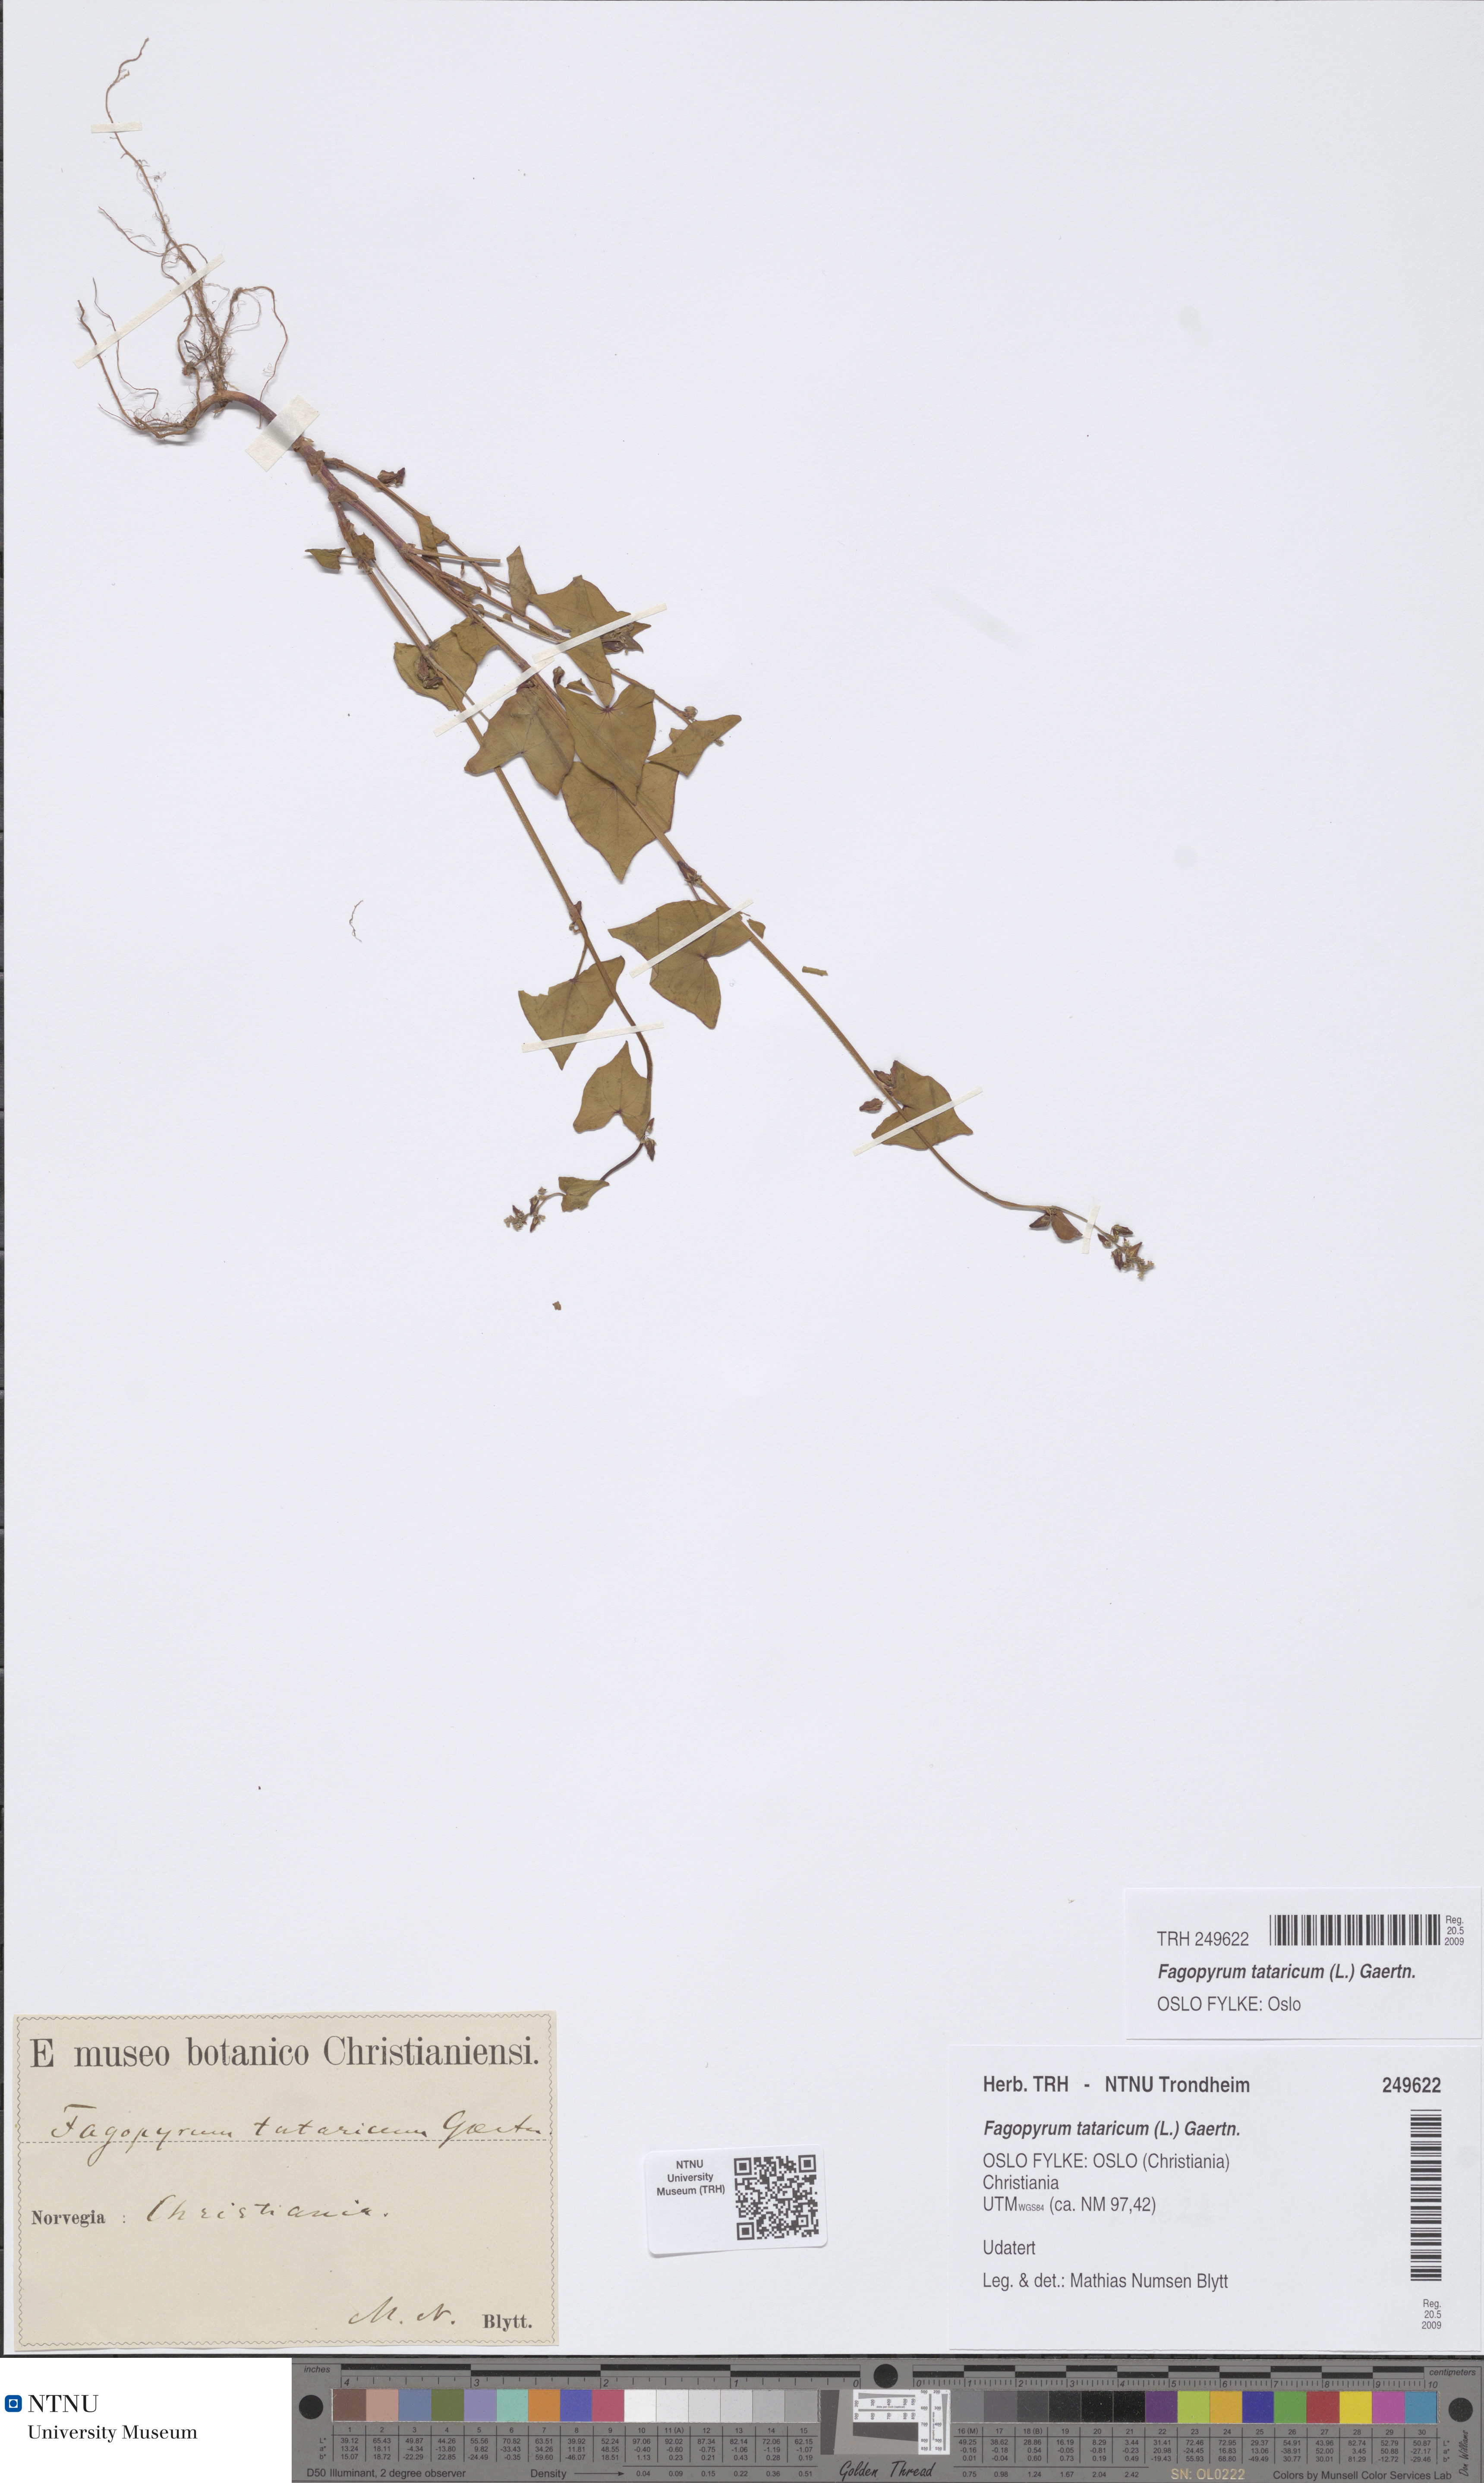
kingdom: Plantae
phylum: Tracheophyta
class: Magnoliopsida
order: Caryophyllales
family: Polygonaceae
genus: Fagopyrum
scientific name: Fagopyrum tataricum
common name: Green buckwheat
